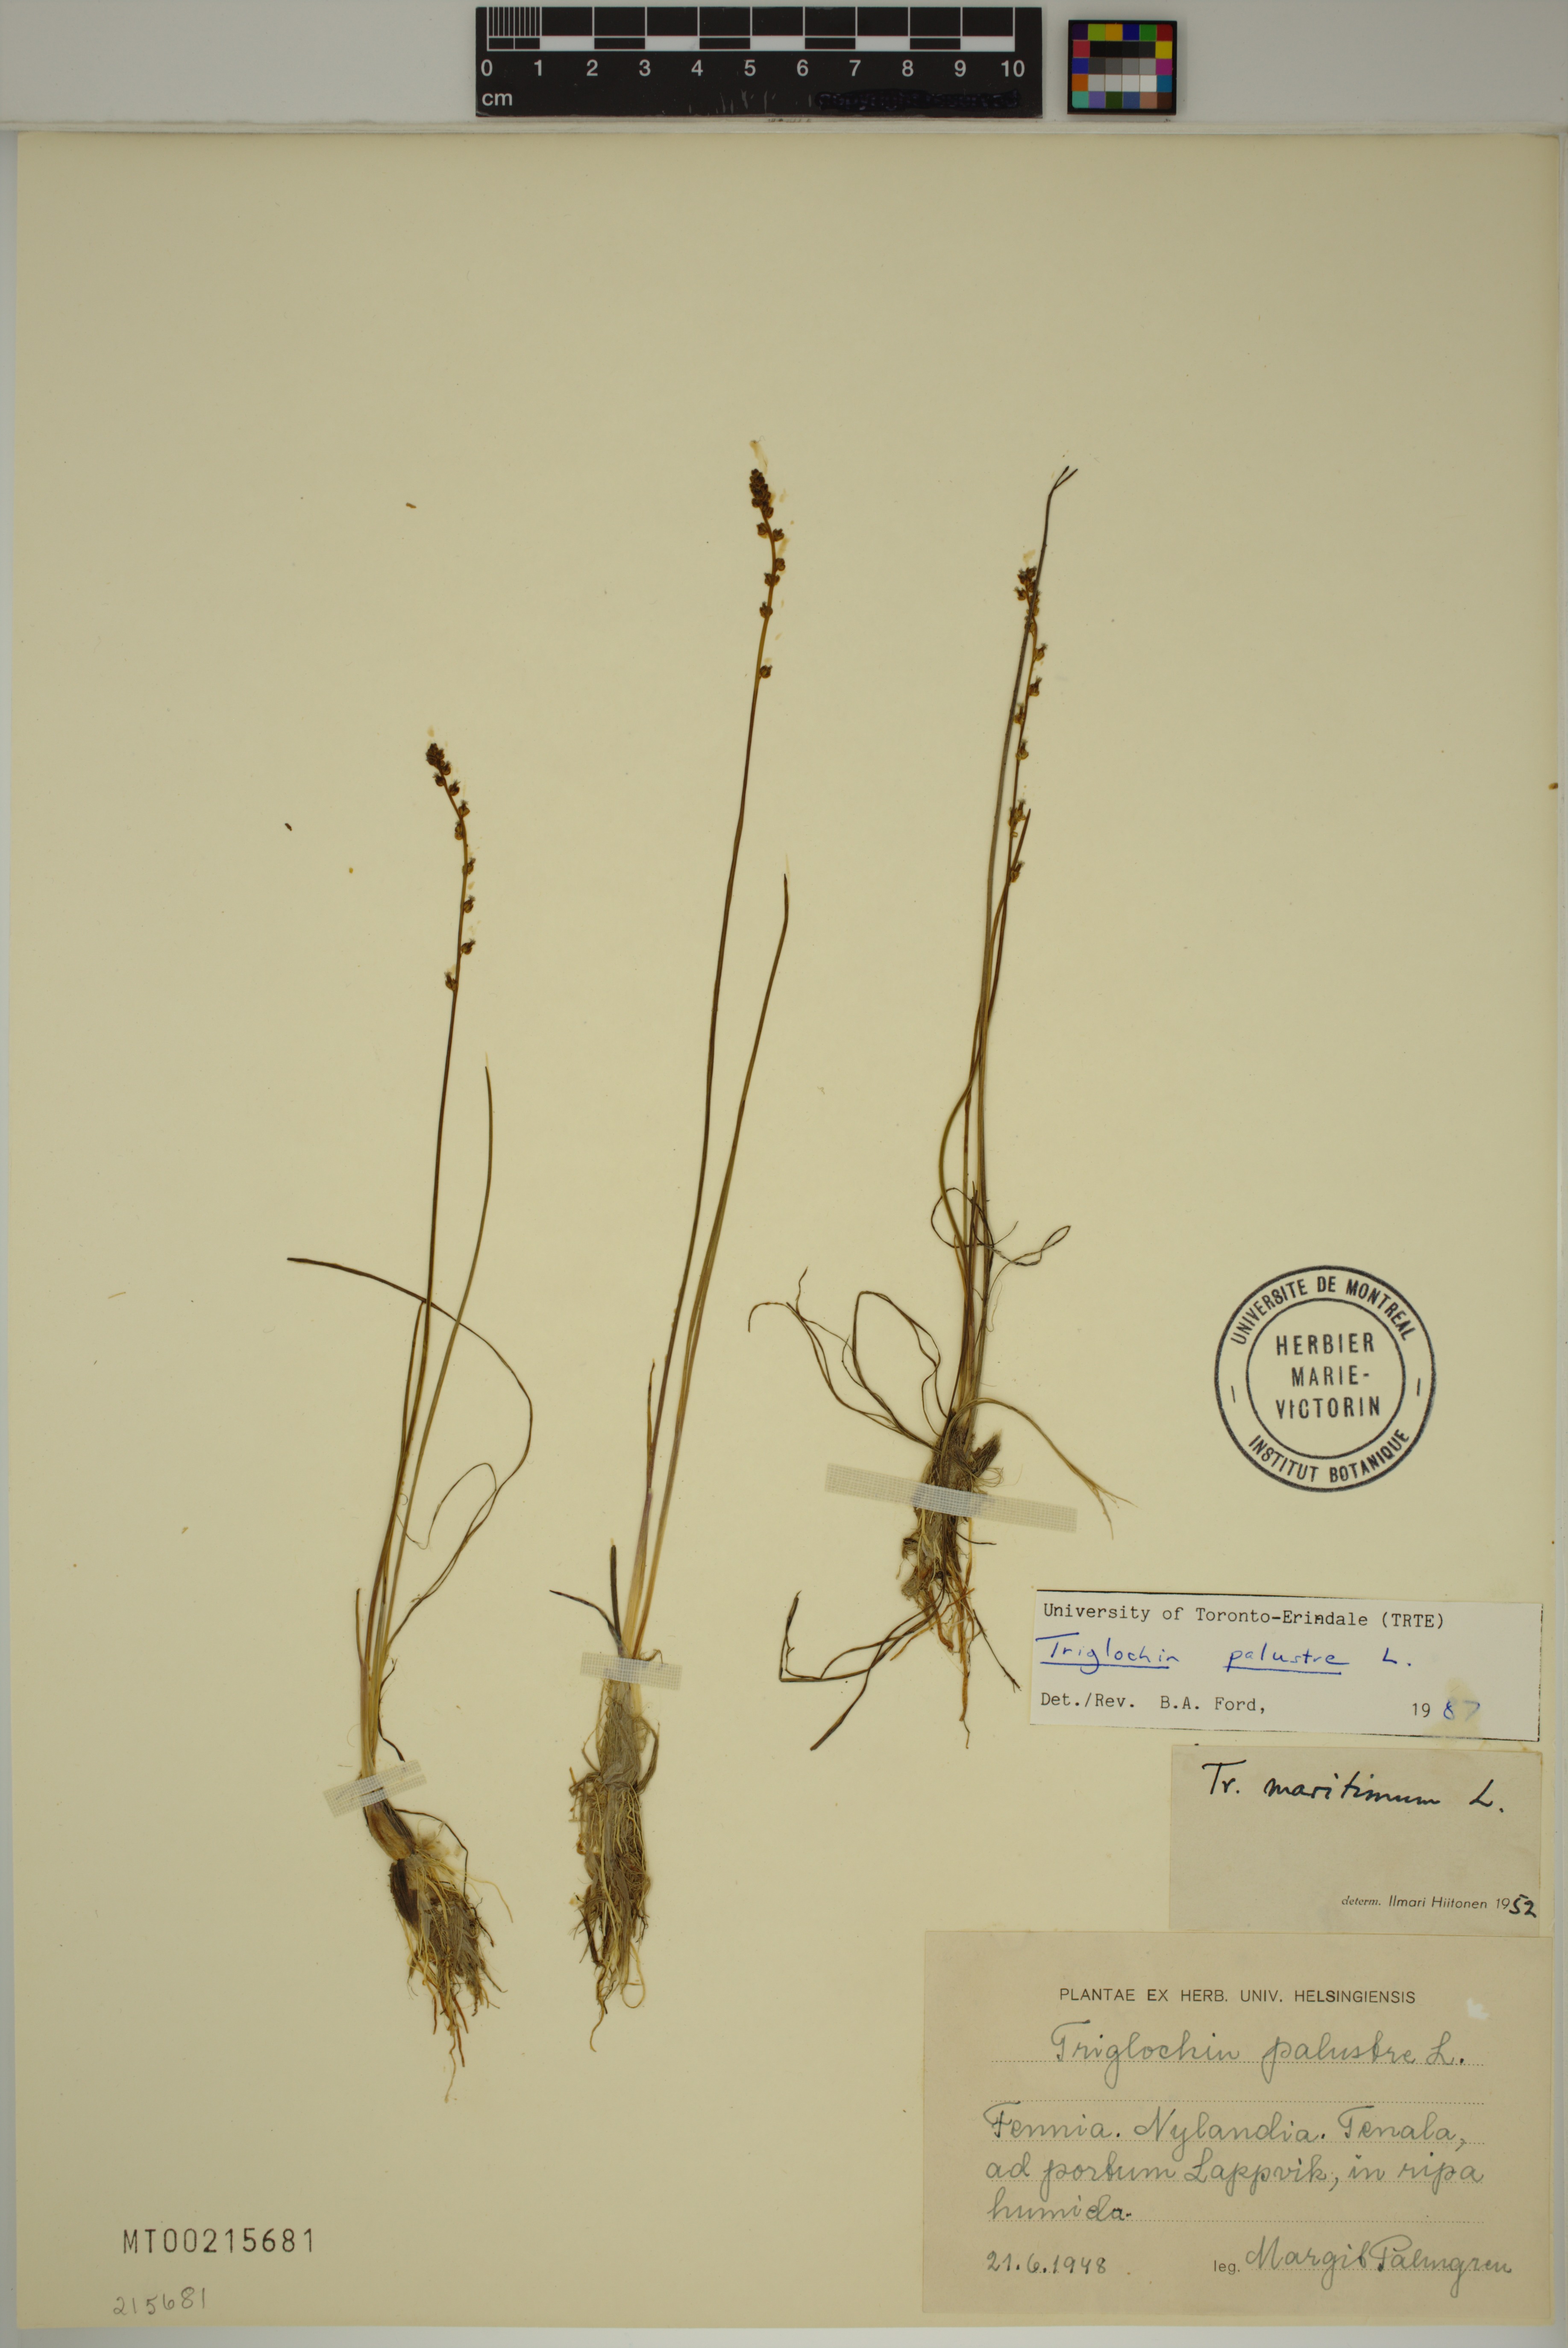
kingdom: Plantae
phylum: Tracheophyta
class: Liliopsida
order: Alismatales
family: Juncaginaceae
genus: Triglochin
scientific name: Triglochin palustris
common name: Marsh arrowgrass
